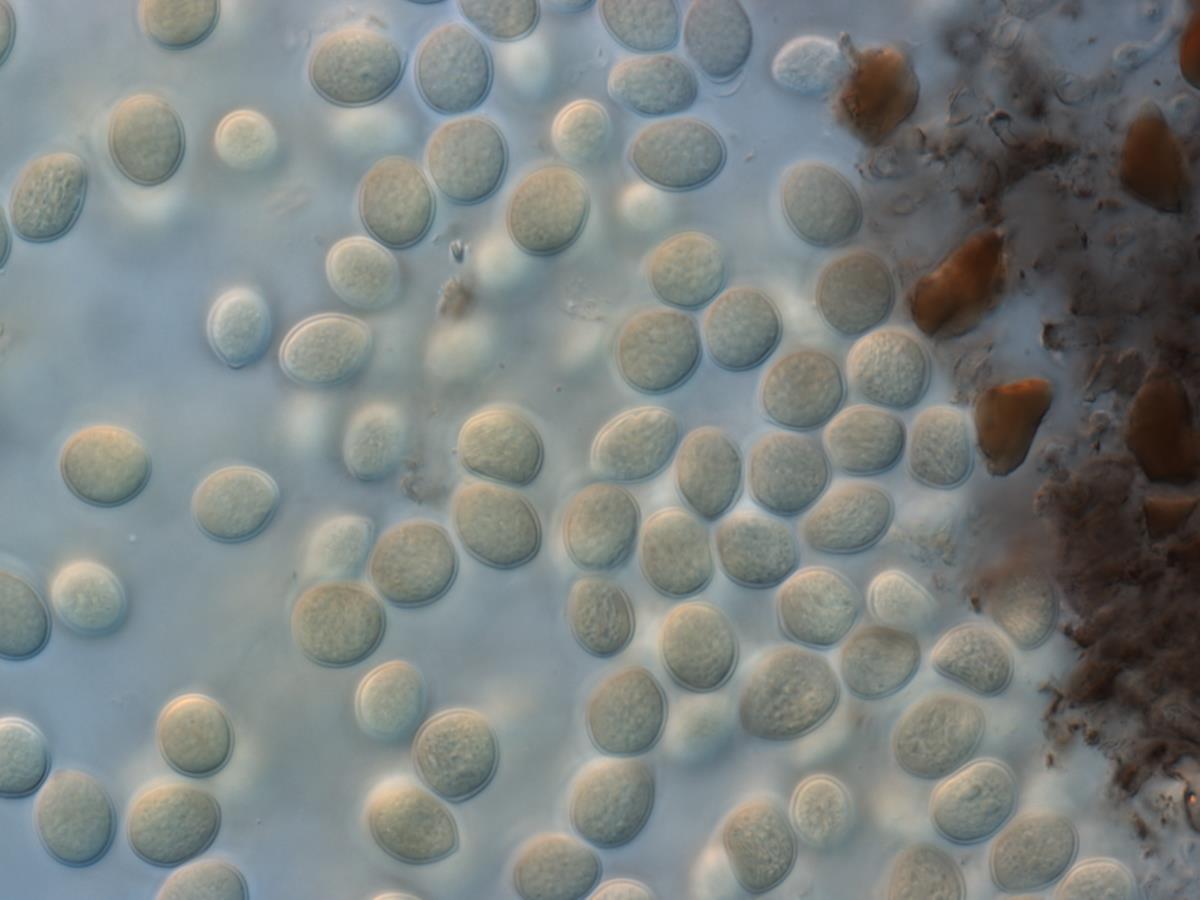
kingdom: Fungi
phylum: Ascomycota
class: Leotiomycetes
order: Helotiales
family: Dermateaceae
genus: Cryptosporiopsis
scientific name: Cryptosporiopsis
